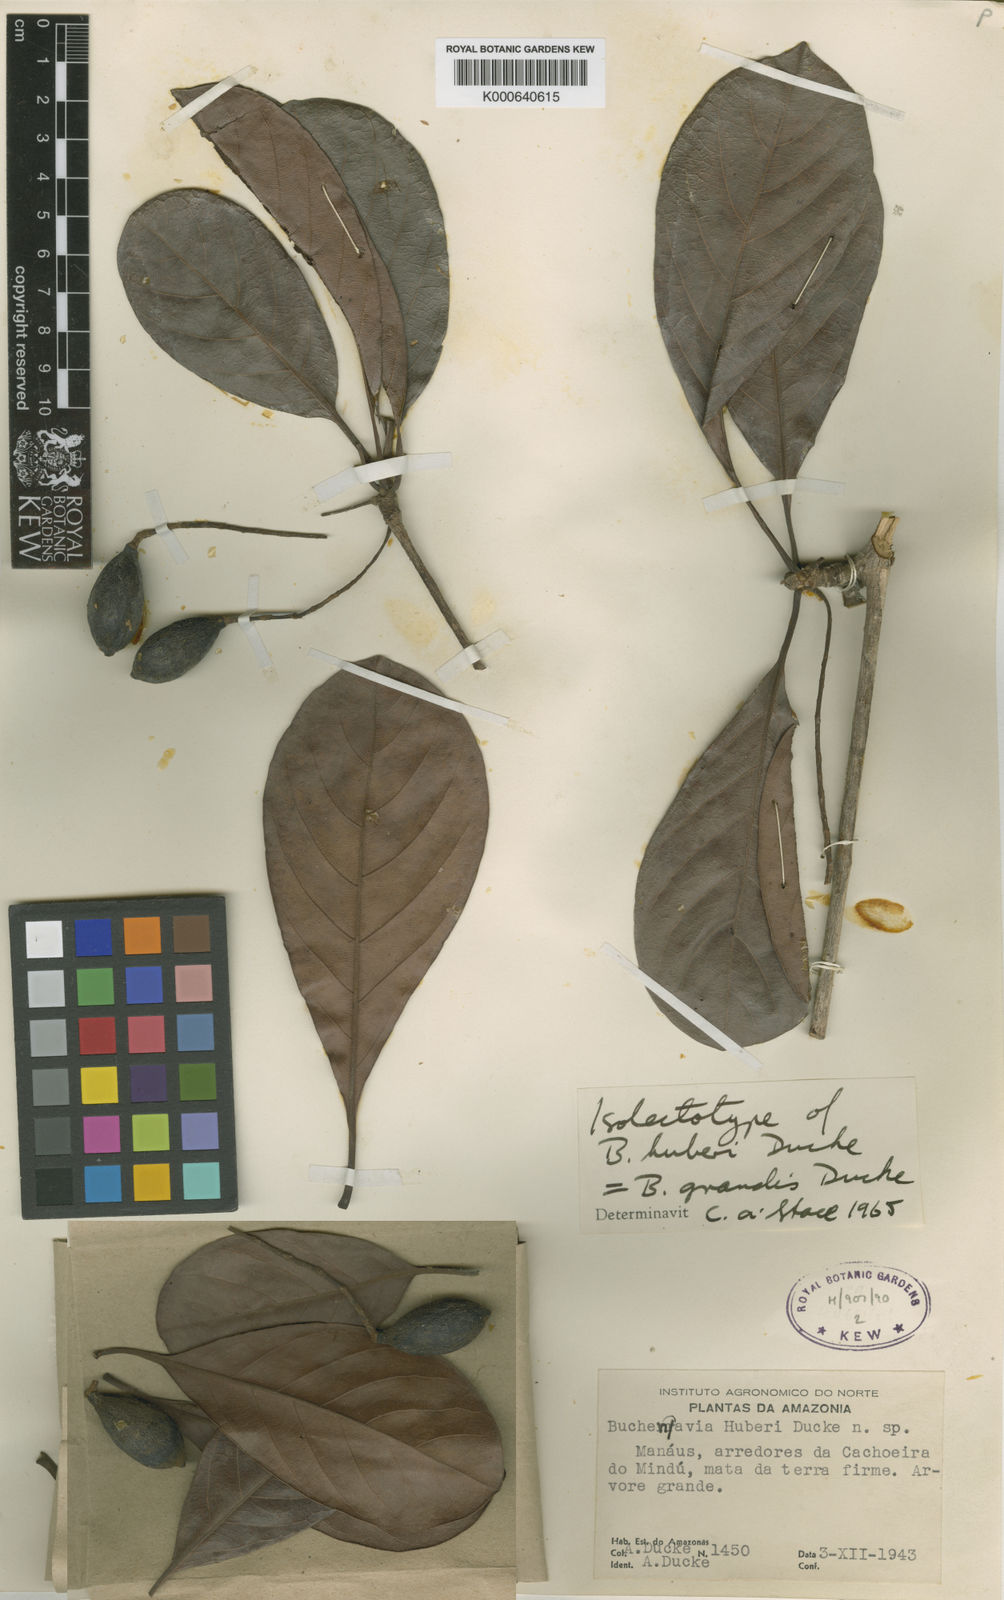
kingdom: Plantae
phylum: Tracheophyta
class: Magnoliopsida
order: Myrtales
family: Combretaceae
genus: Terminalia
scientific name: Terminalia grandis
